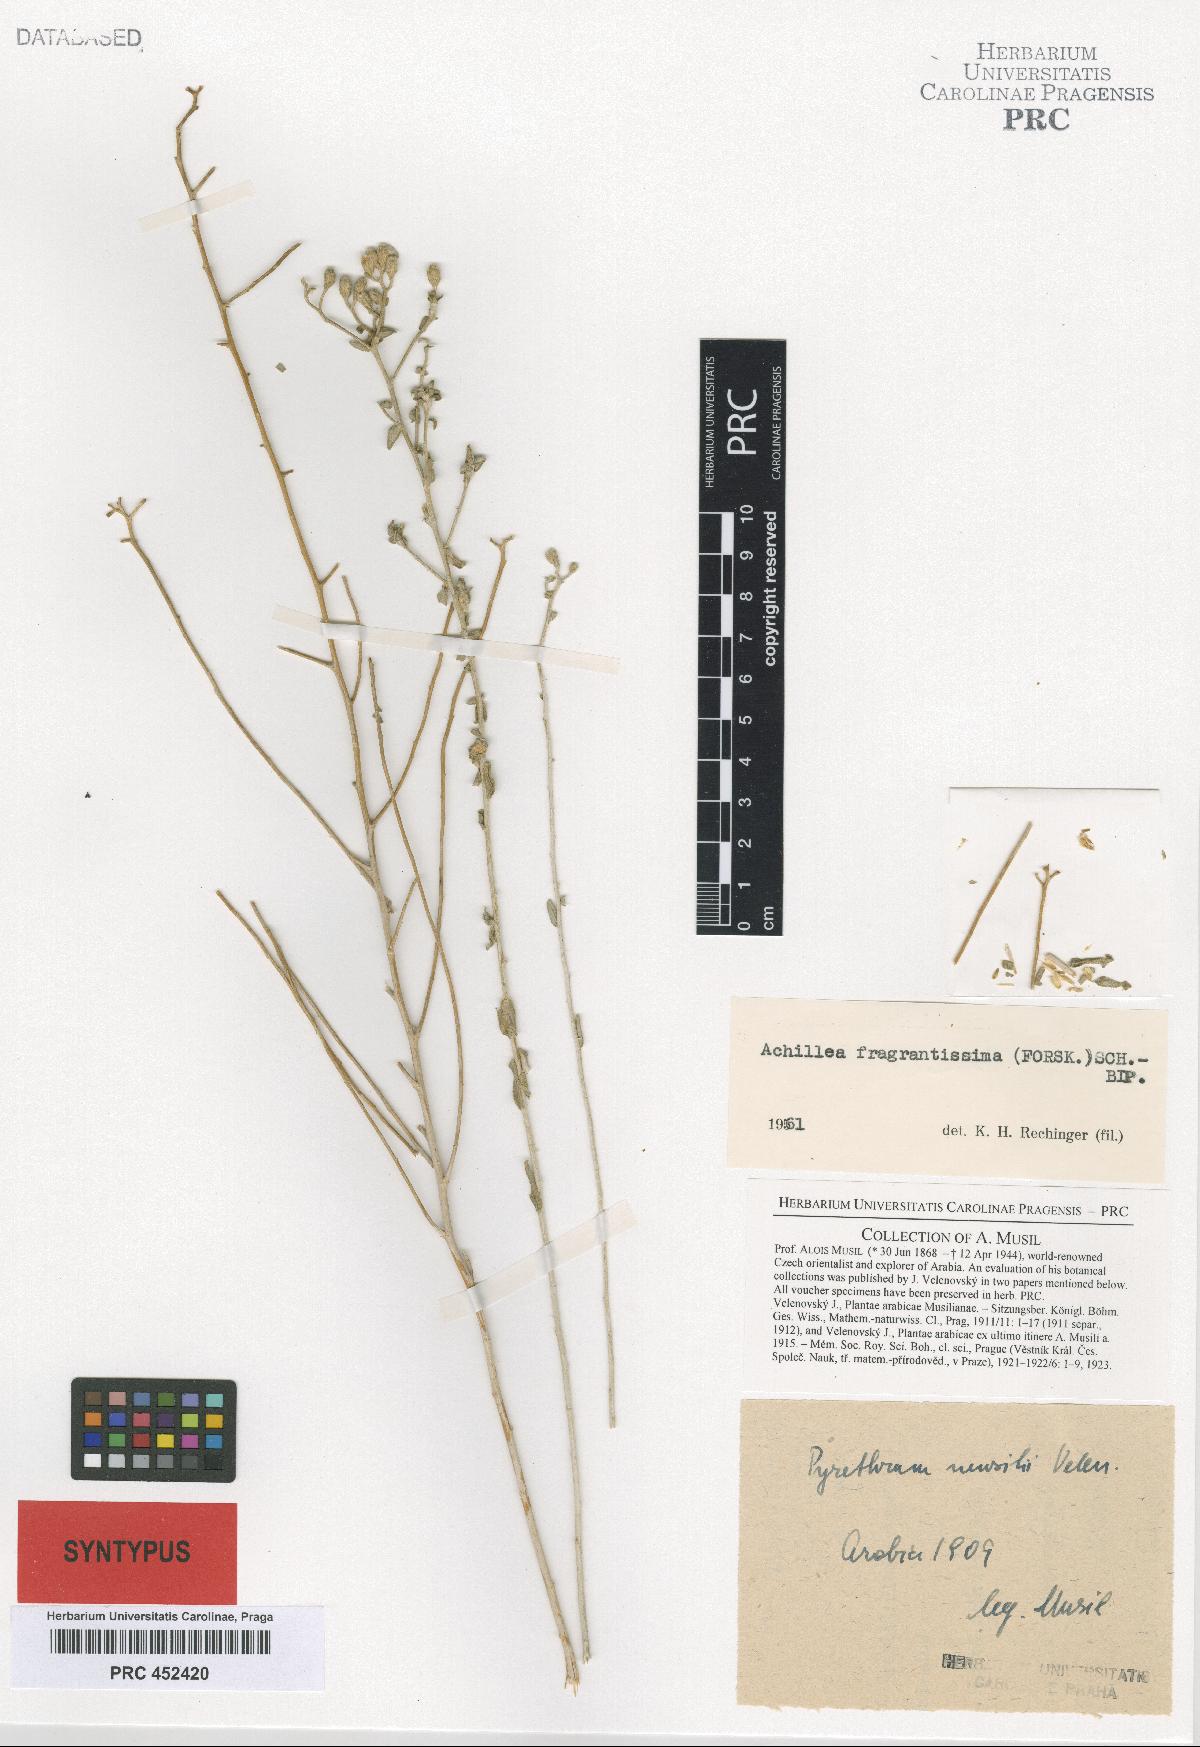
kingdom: Plantae
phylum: Tracheophyta
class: Magnoliopsida
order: Asterales
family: Asteraceae
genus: Tanacetum
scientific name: Tanacetum musili
